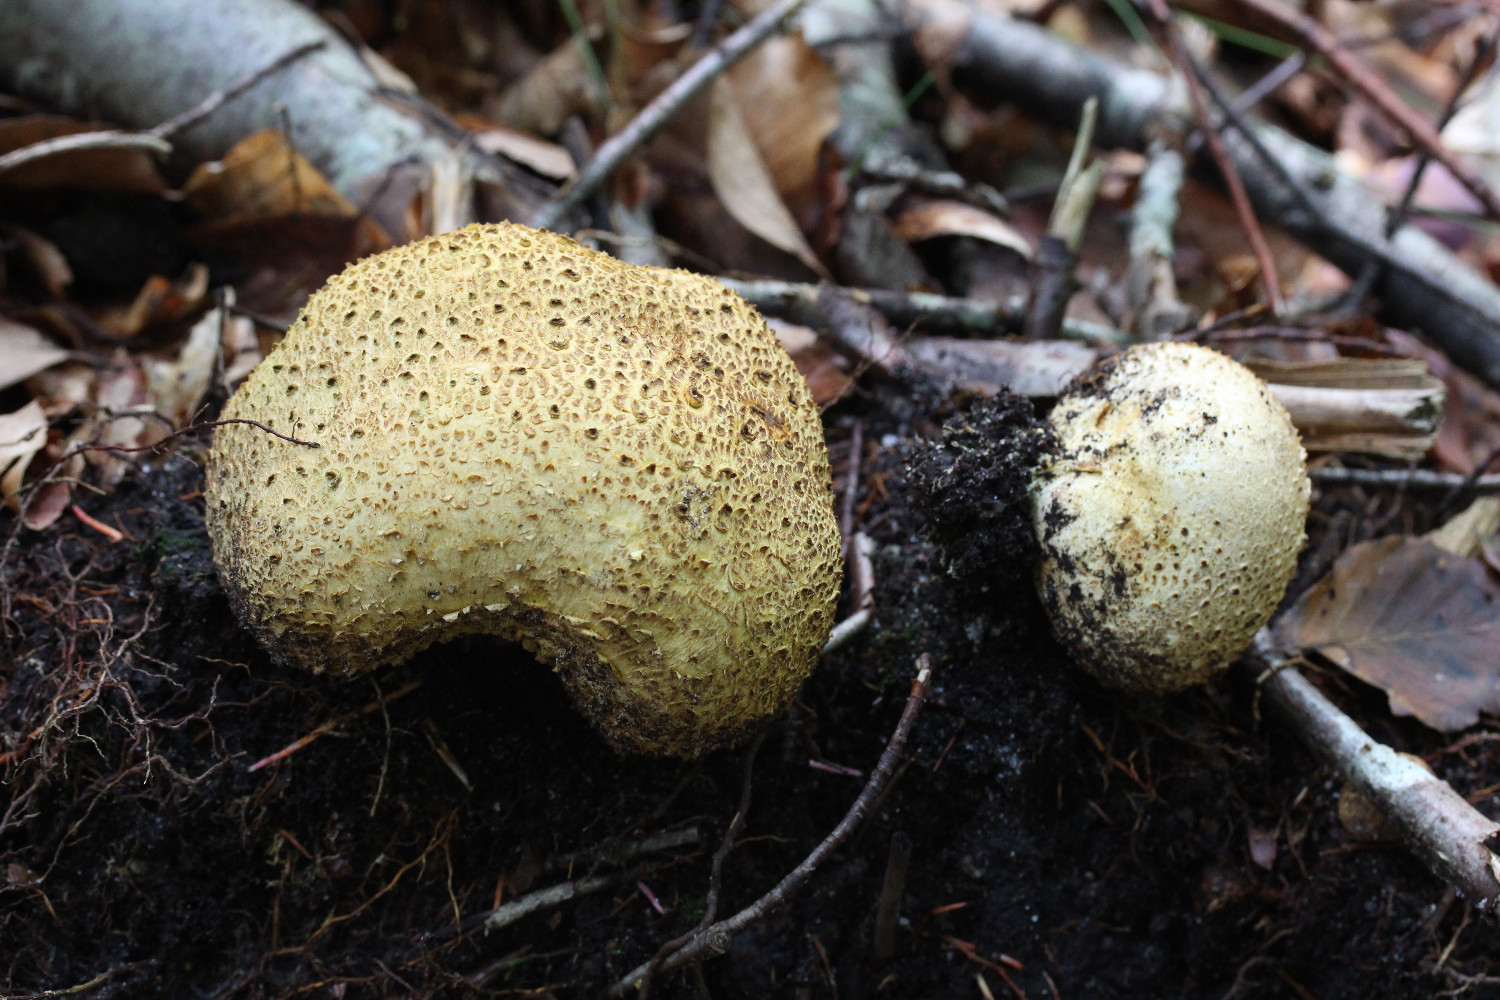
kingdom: Fungi
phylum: Basidiomycota
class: Agaricomycetes
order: Boletales
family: Sclerodermataceae
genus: Scleroderma
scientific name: Scleroderma citrinum
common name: almindelig bruskbold
